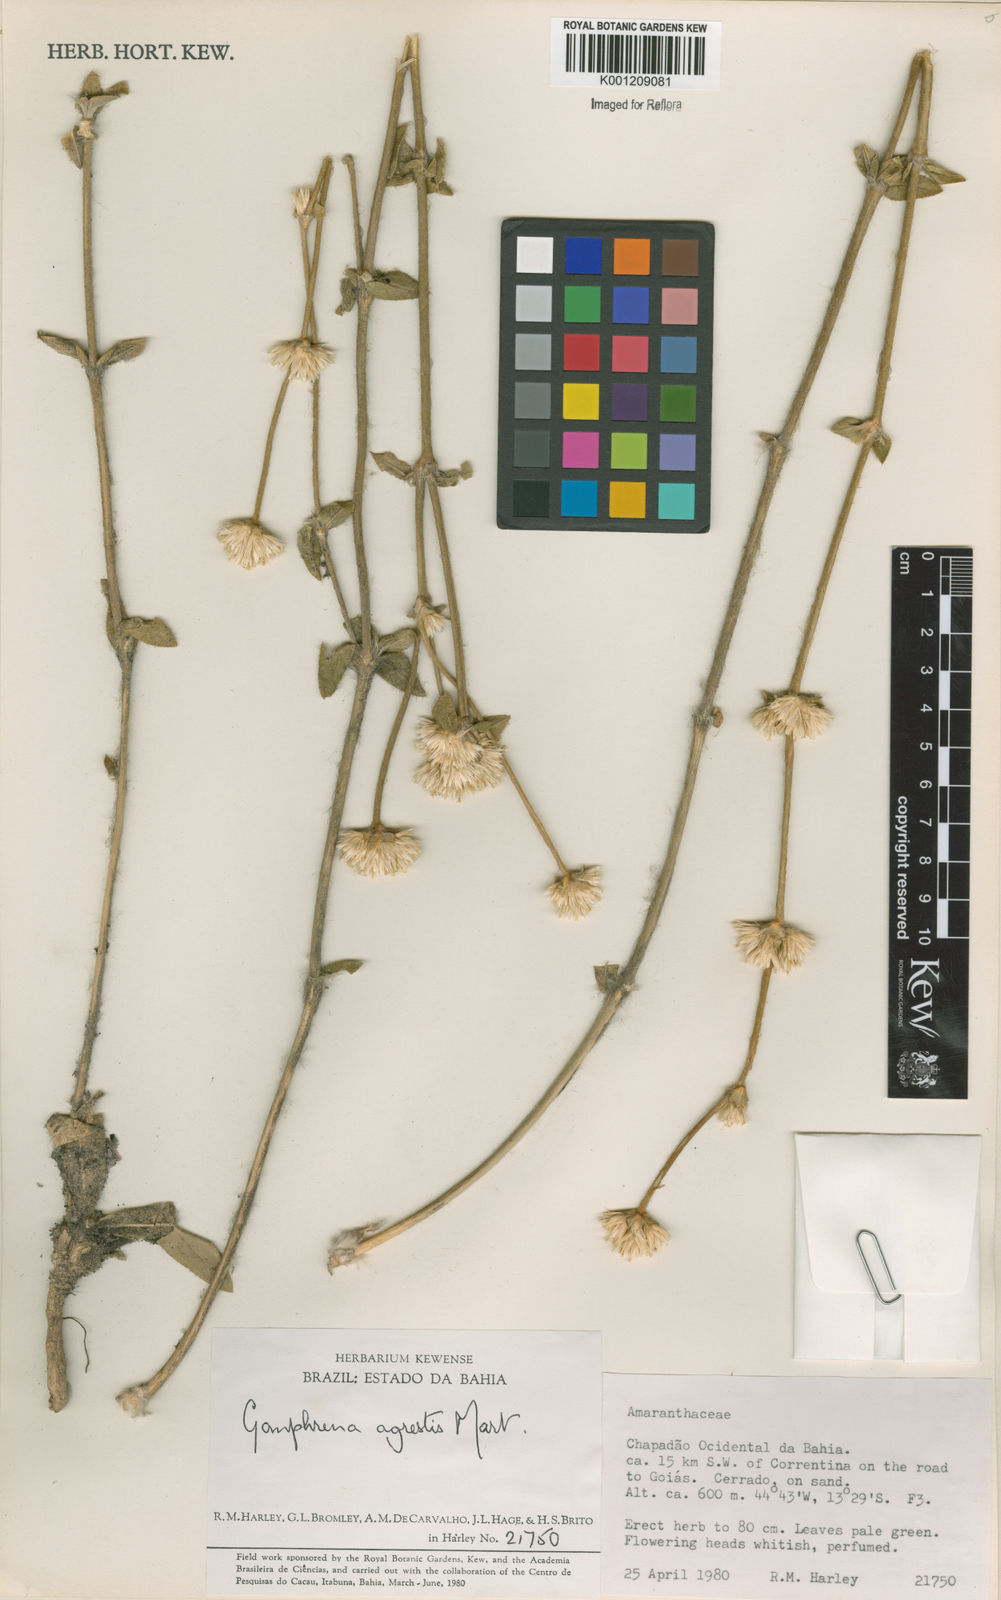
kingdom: Plantae
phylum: Tracheophyta
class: Magnoliopsida
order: Caryophyllales
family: Amaranthaceae
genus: Gomphrena
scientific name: Gomphrena agrestis
